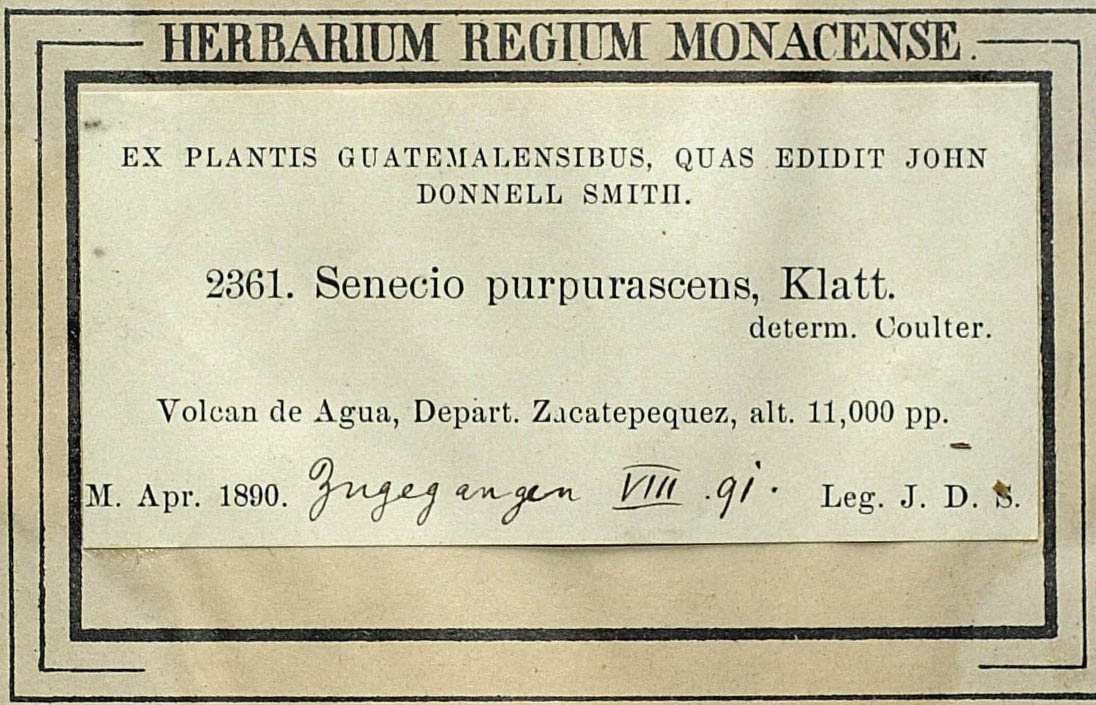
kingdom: Plantae
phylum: Tracheophyta
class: Magnoliopsida
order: Asterales
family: Asteraceae
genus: Senecio
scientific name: Senecio callosus
